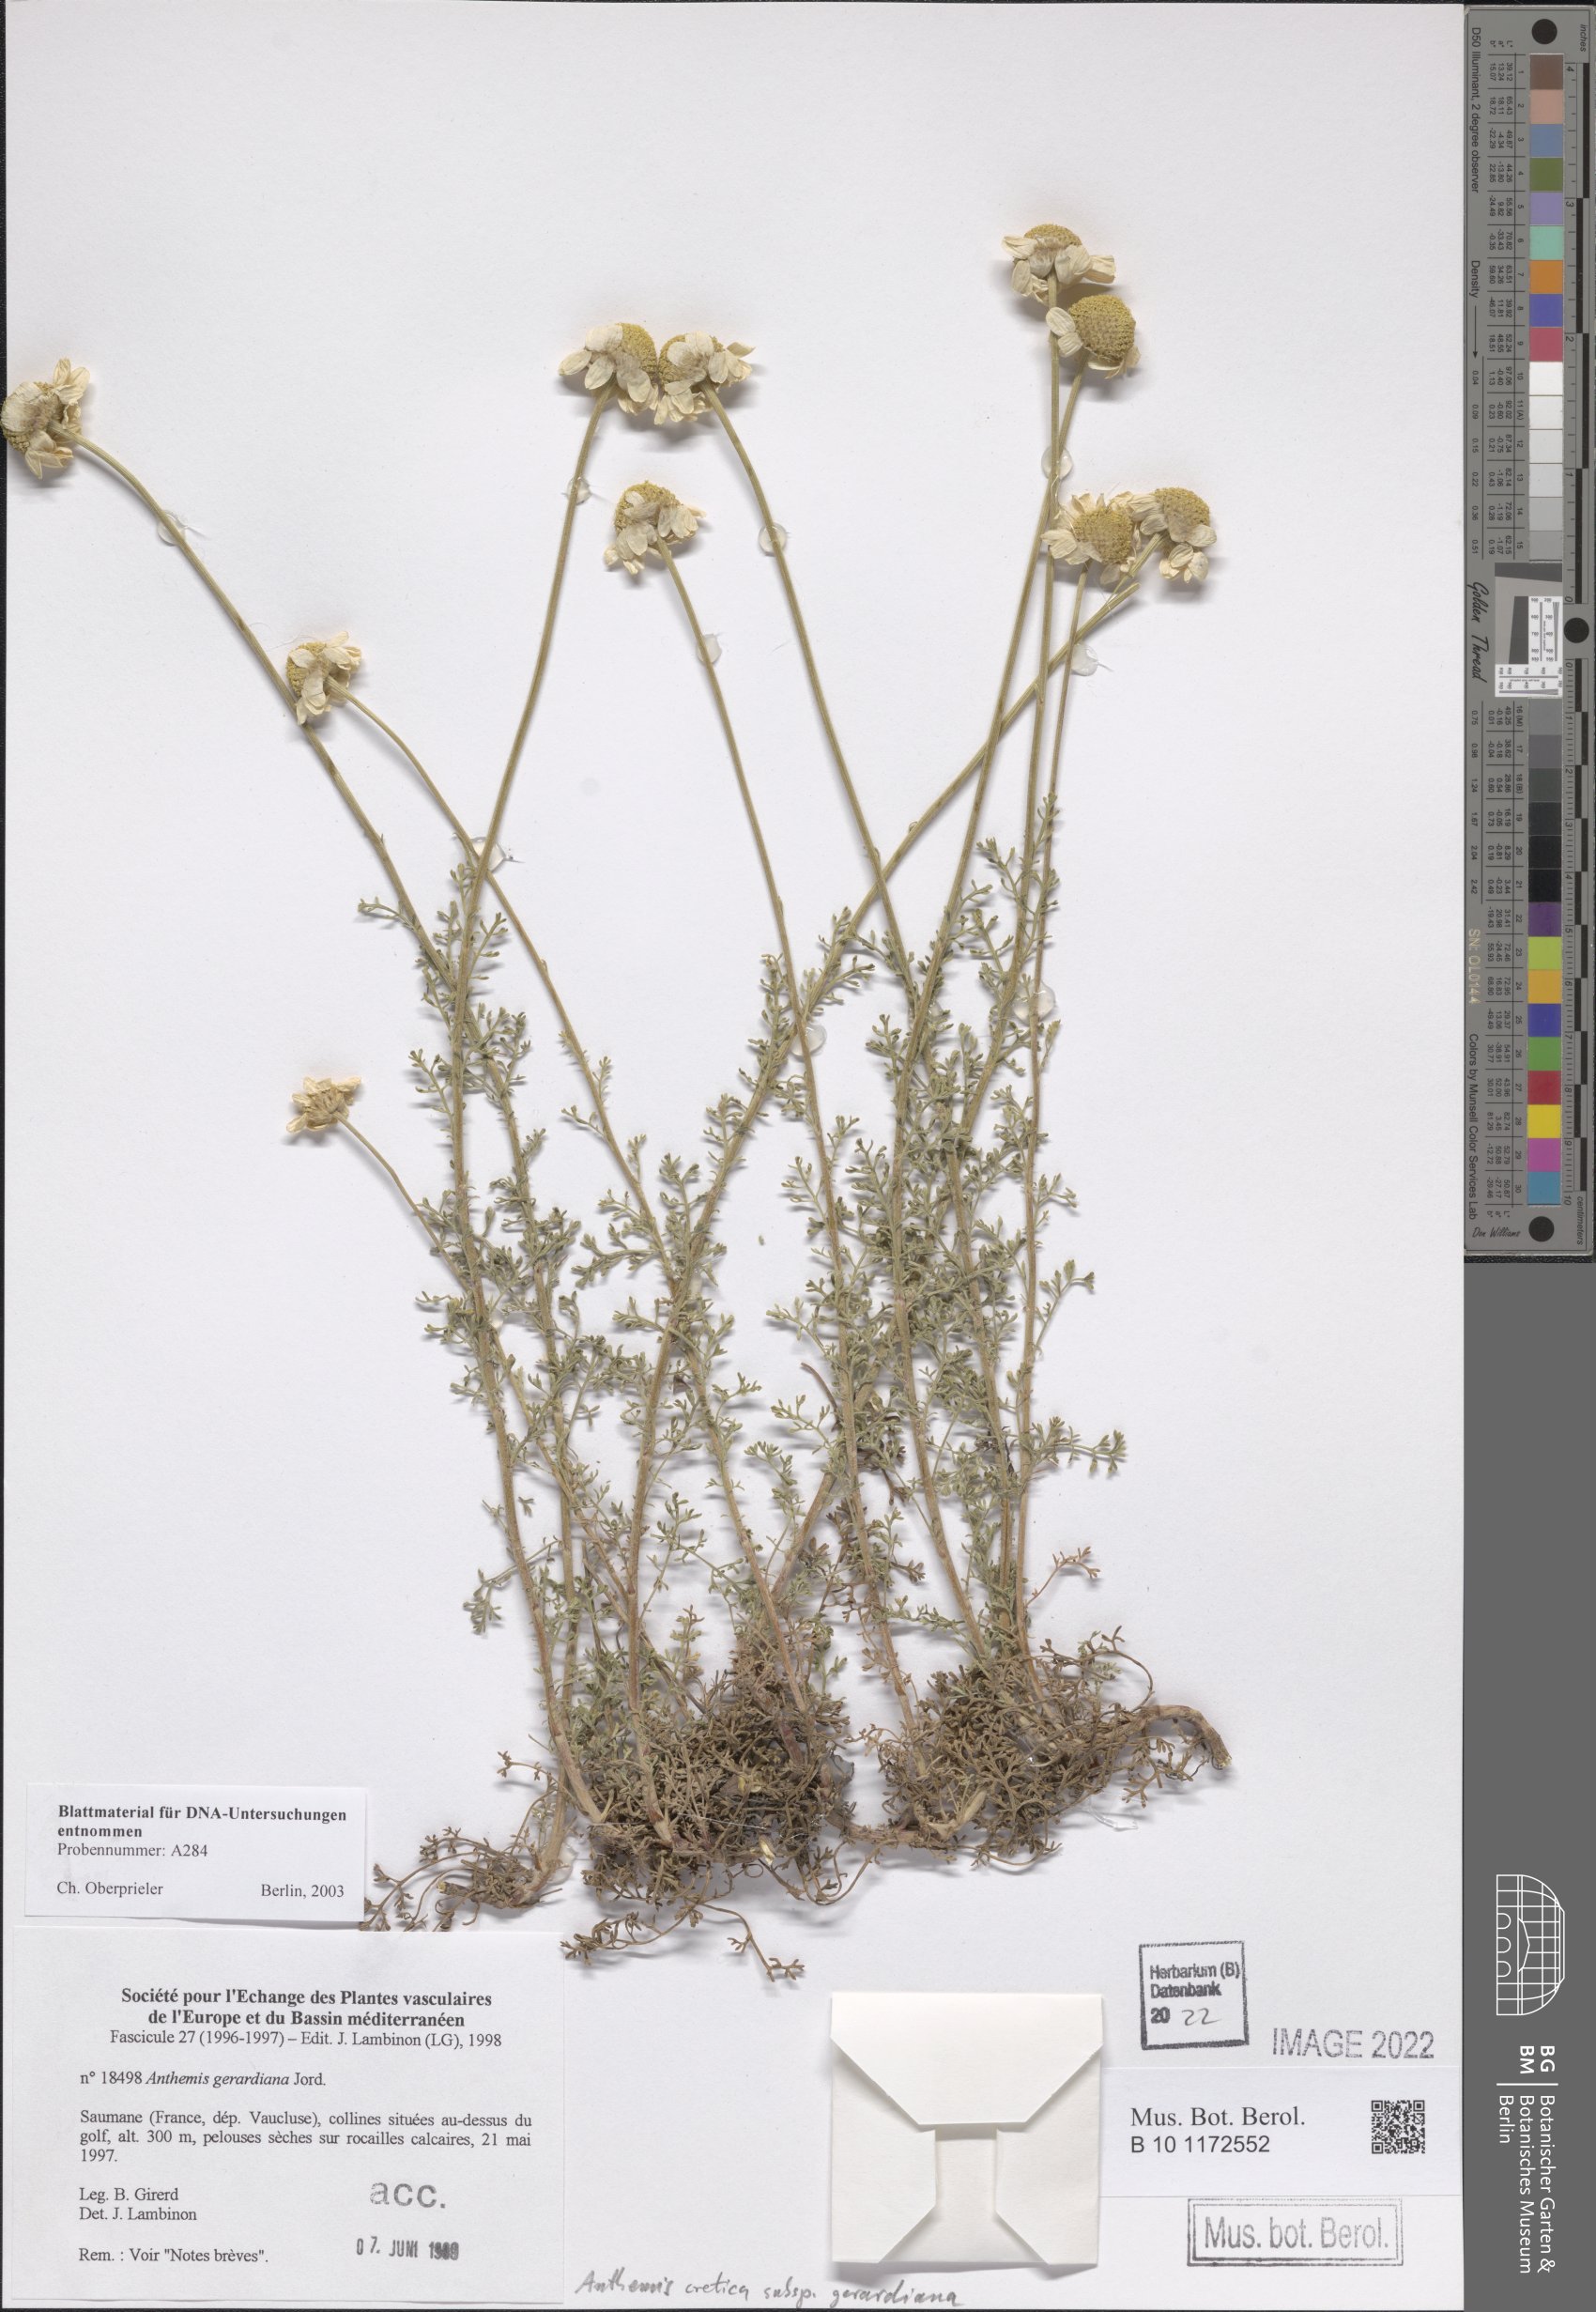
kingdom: Plantae
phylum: Tracheophyta
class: Magnoliopsida
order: Asterales
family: Asteraceae
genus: Anthemis
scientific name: Anthemis cretica
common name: Mountain dog-daisy
